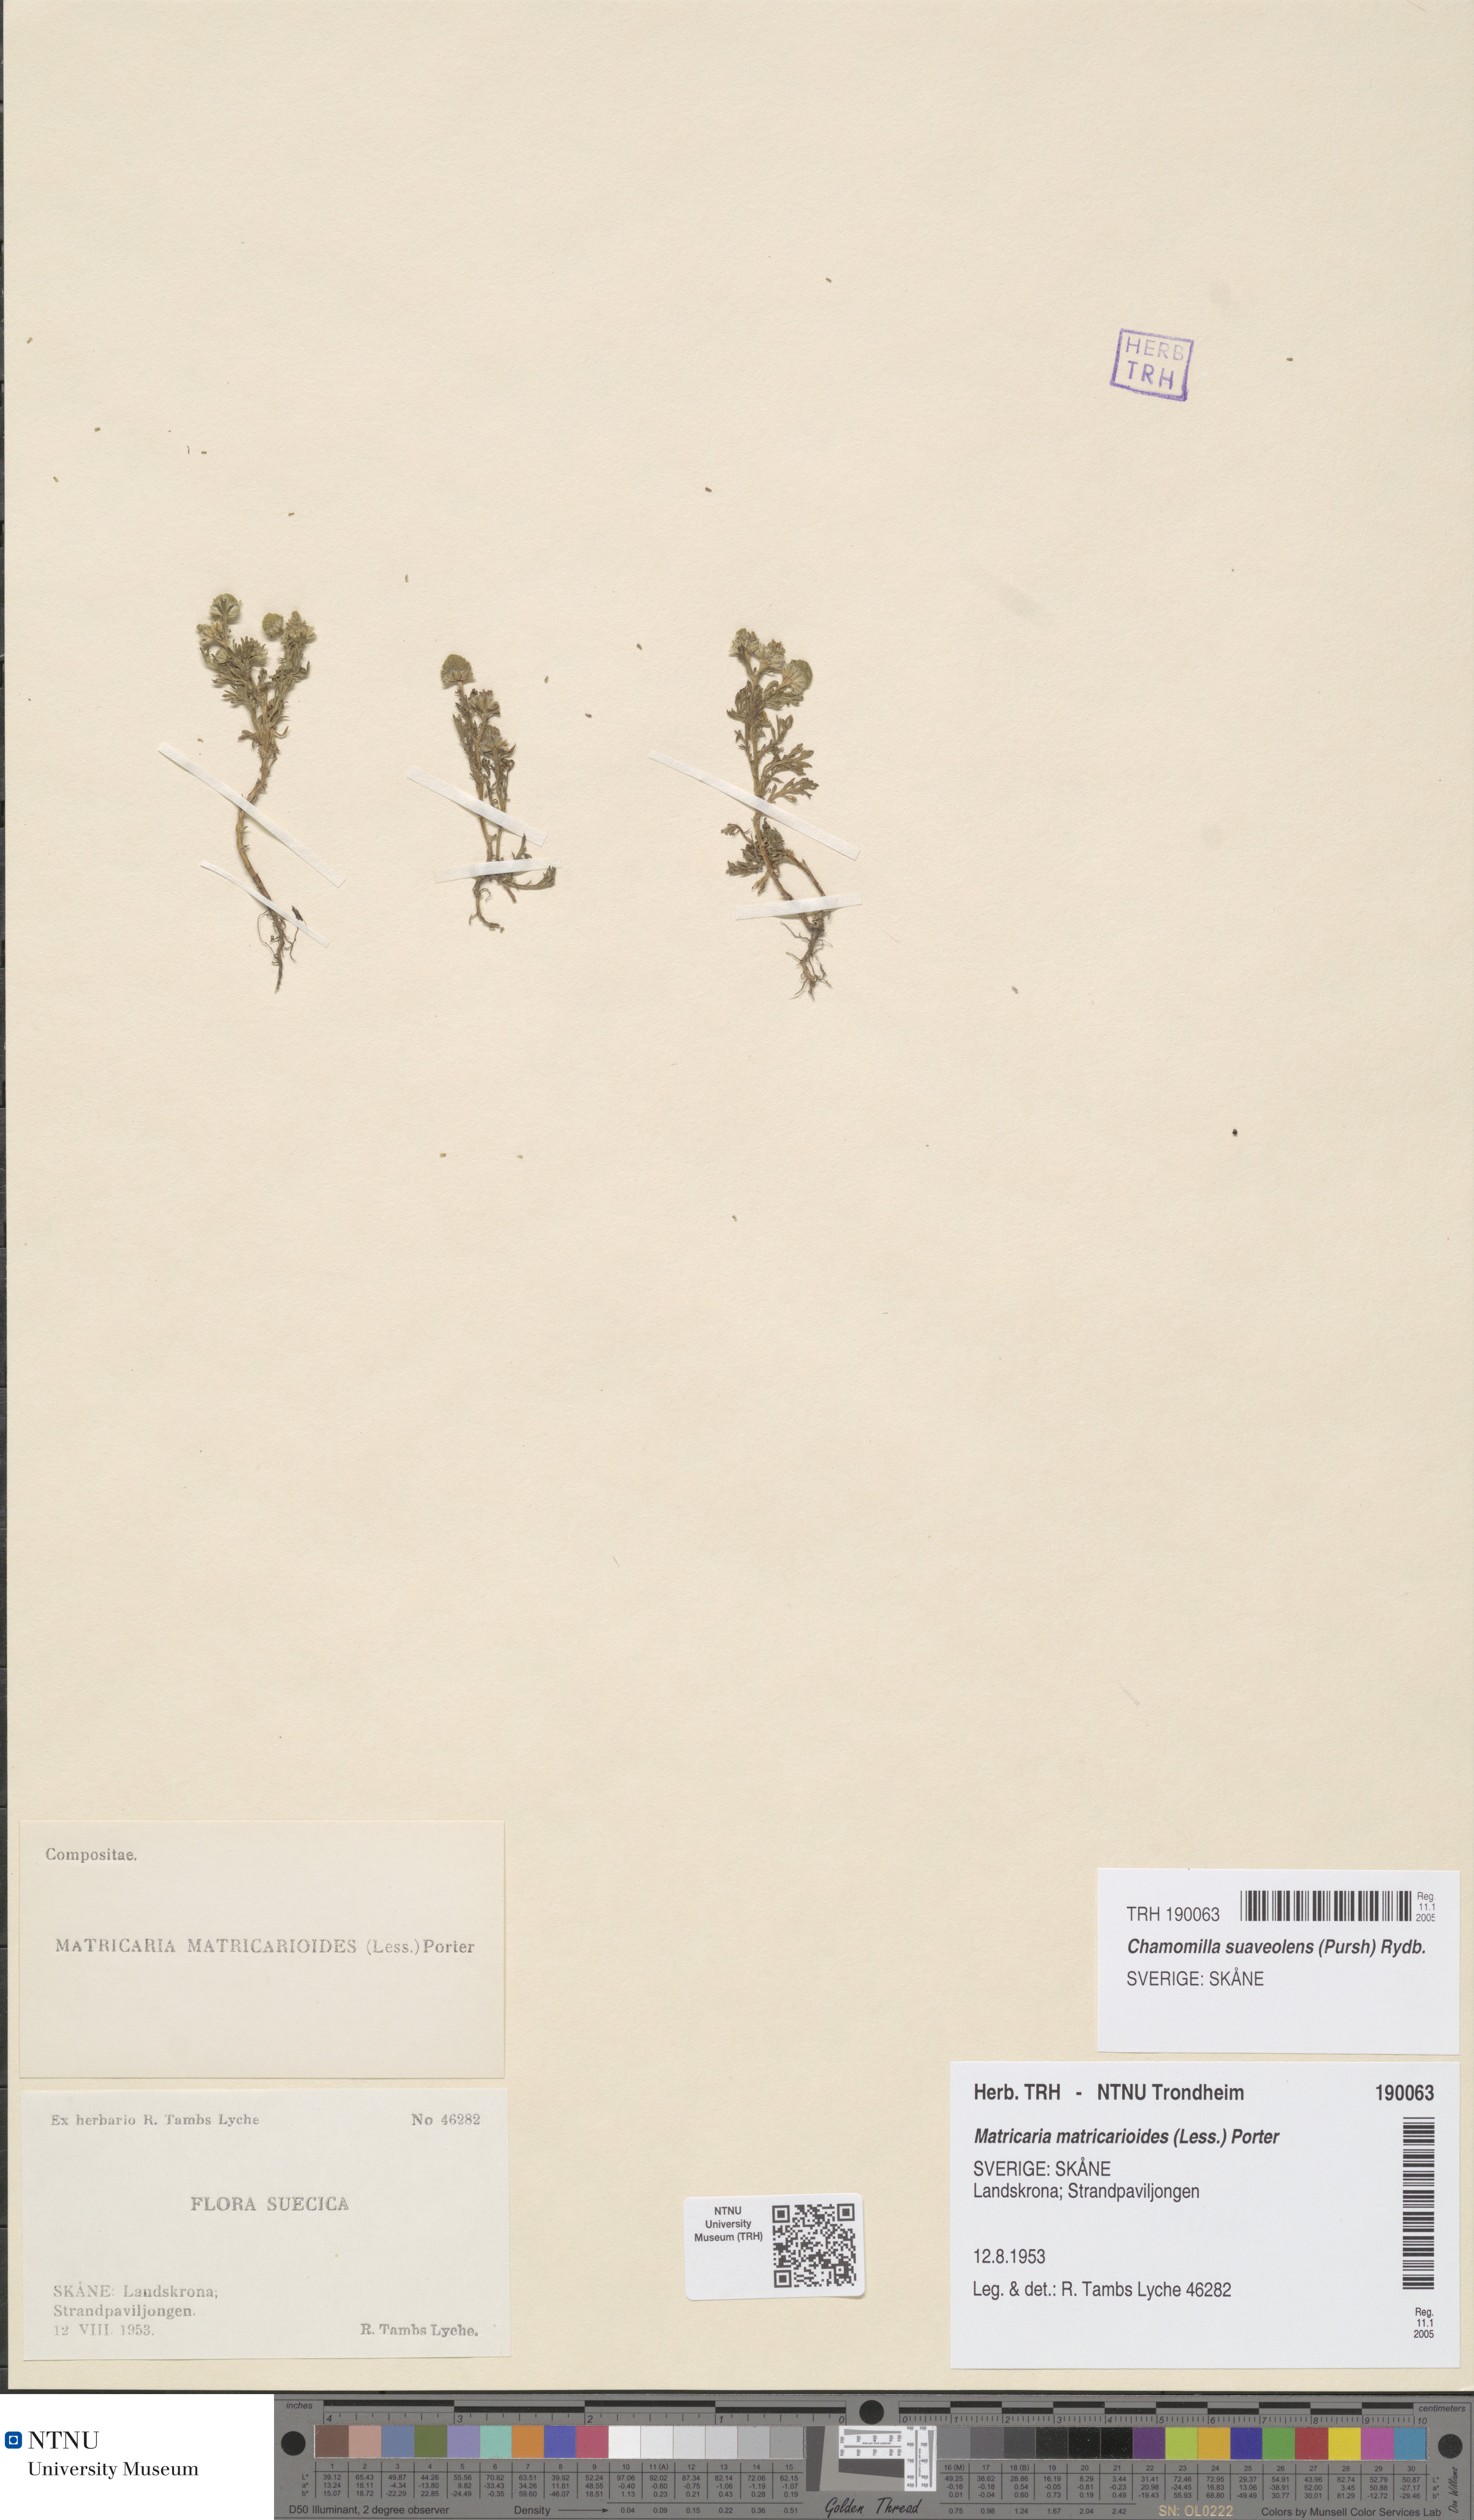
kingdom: Plantae
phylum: Tracheophyta
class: Magnoliopsida
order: Asterales
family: Asteraceae
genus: Matricaria
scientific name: Matricaria discoidea
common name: Disc mayweed
